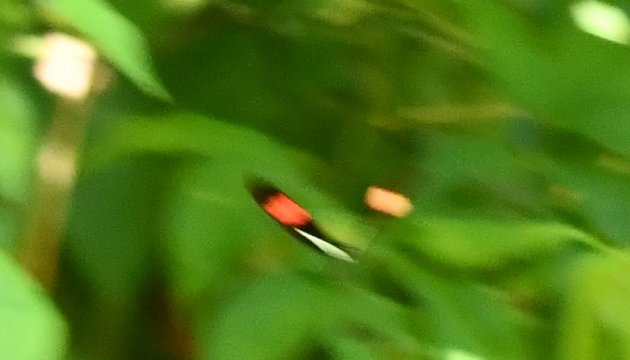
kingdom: Animalia
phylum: Arthropoda
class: Insecta
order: Lepidoptera
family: Nymphalidae
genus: Heliconius
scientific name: Heliconius erato
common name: Erato Heliconian
